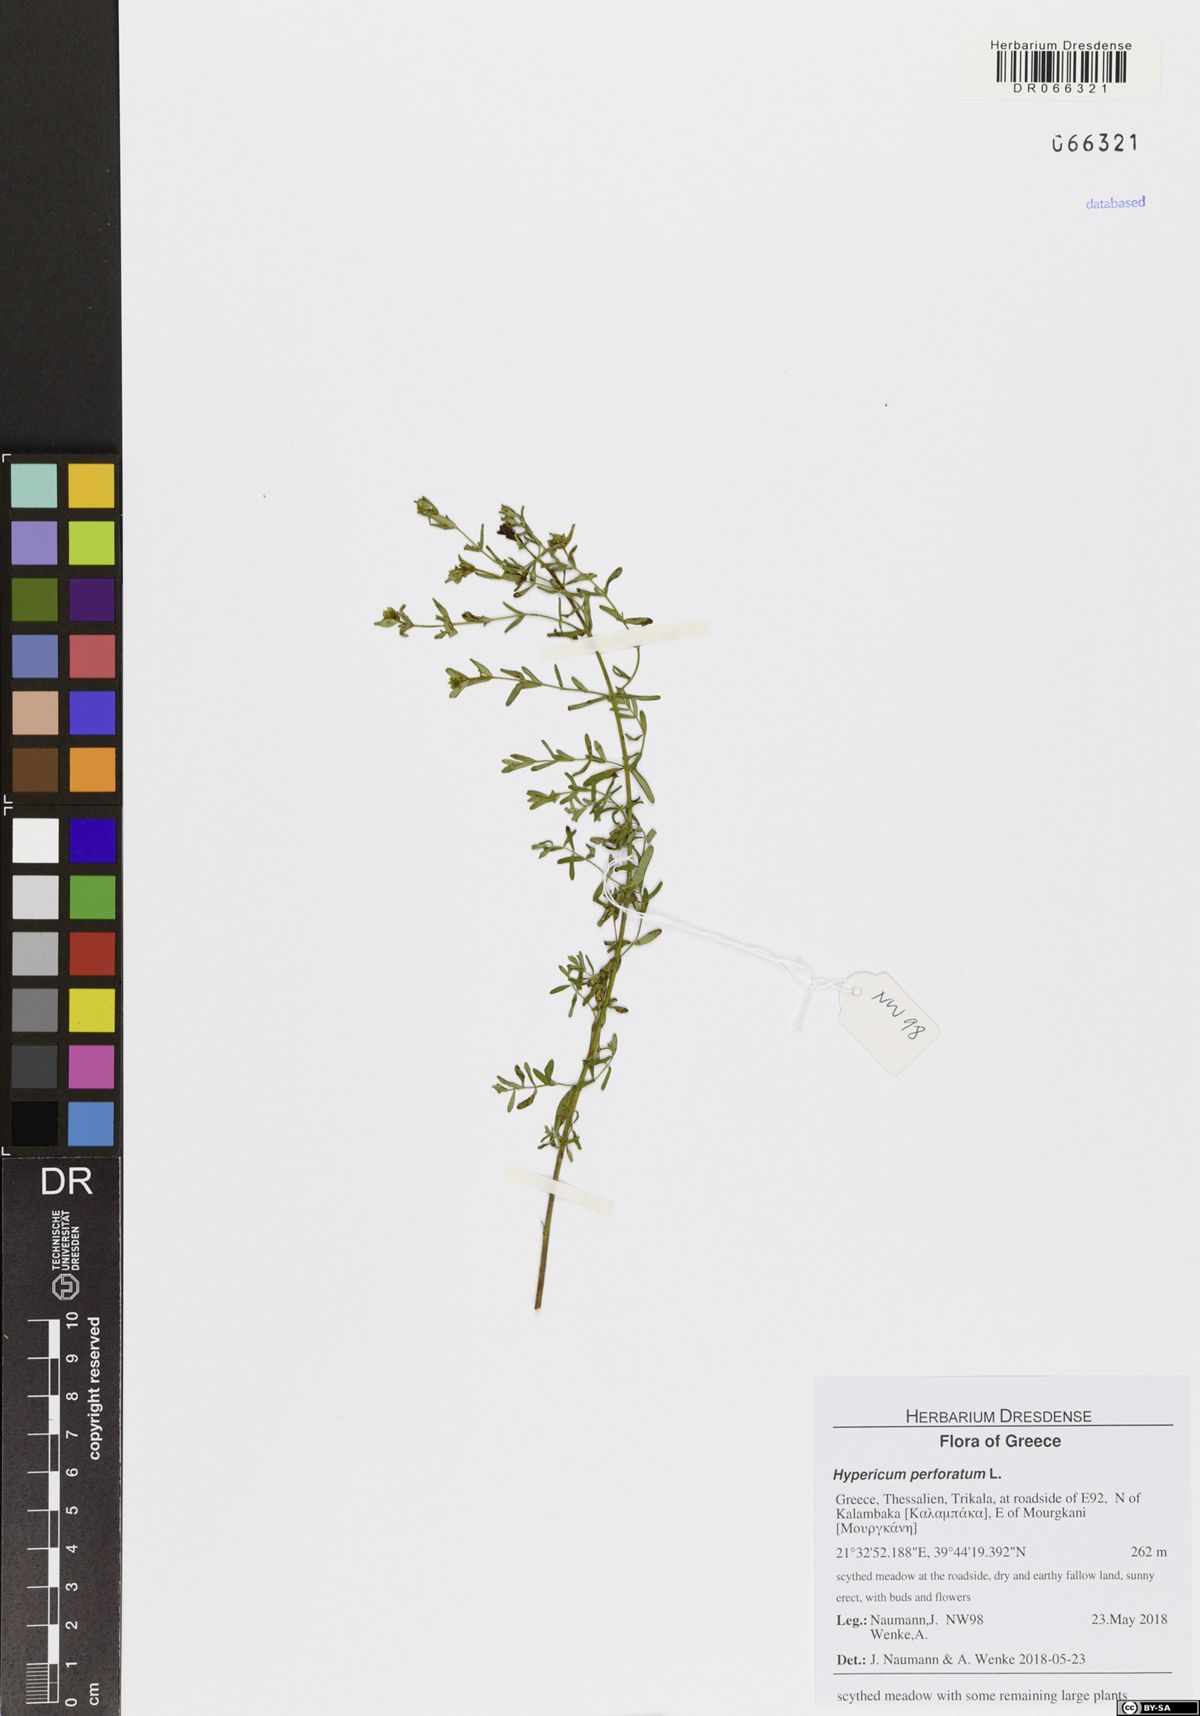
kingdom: Plantae
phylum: Tracheophyta
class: Magnoliopsida
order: Malpighiales
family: Hypericaceae
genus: Hypericum
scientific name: Hypericum perforatum
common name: Common st. johnswort
